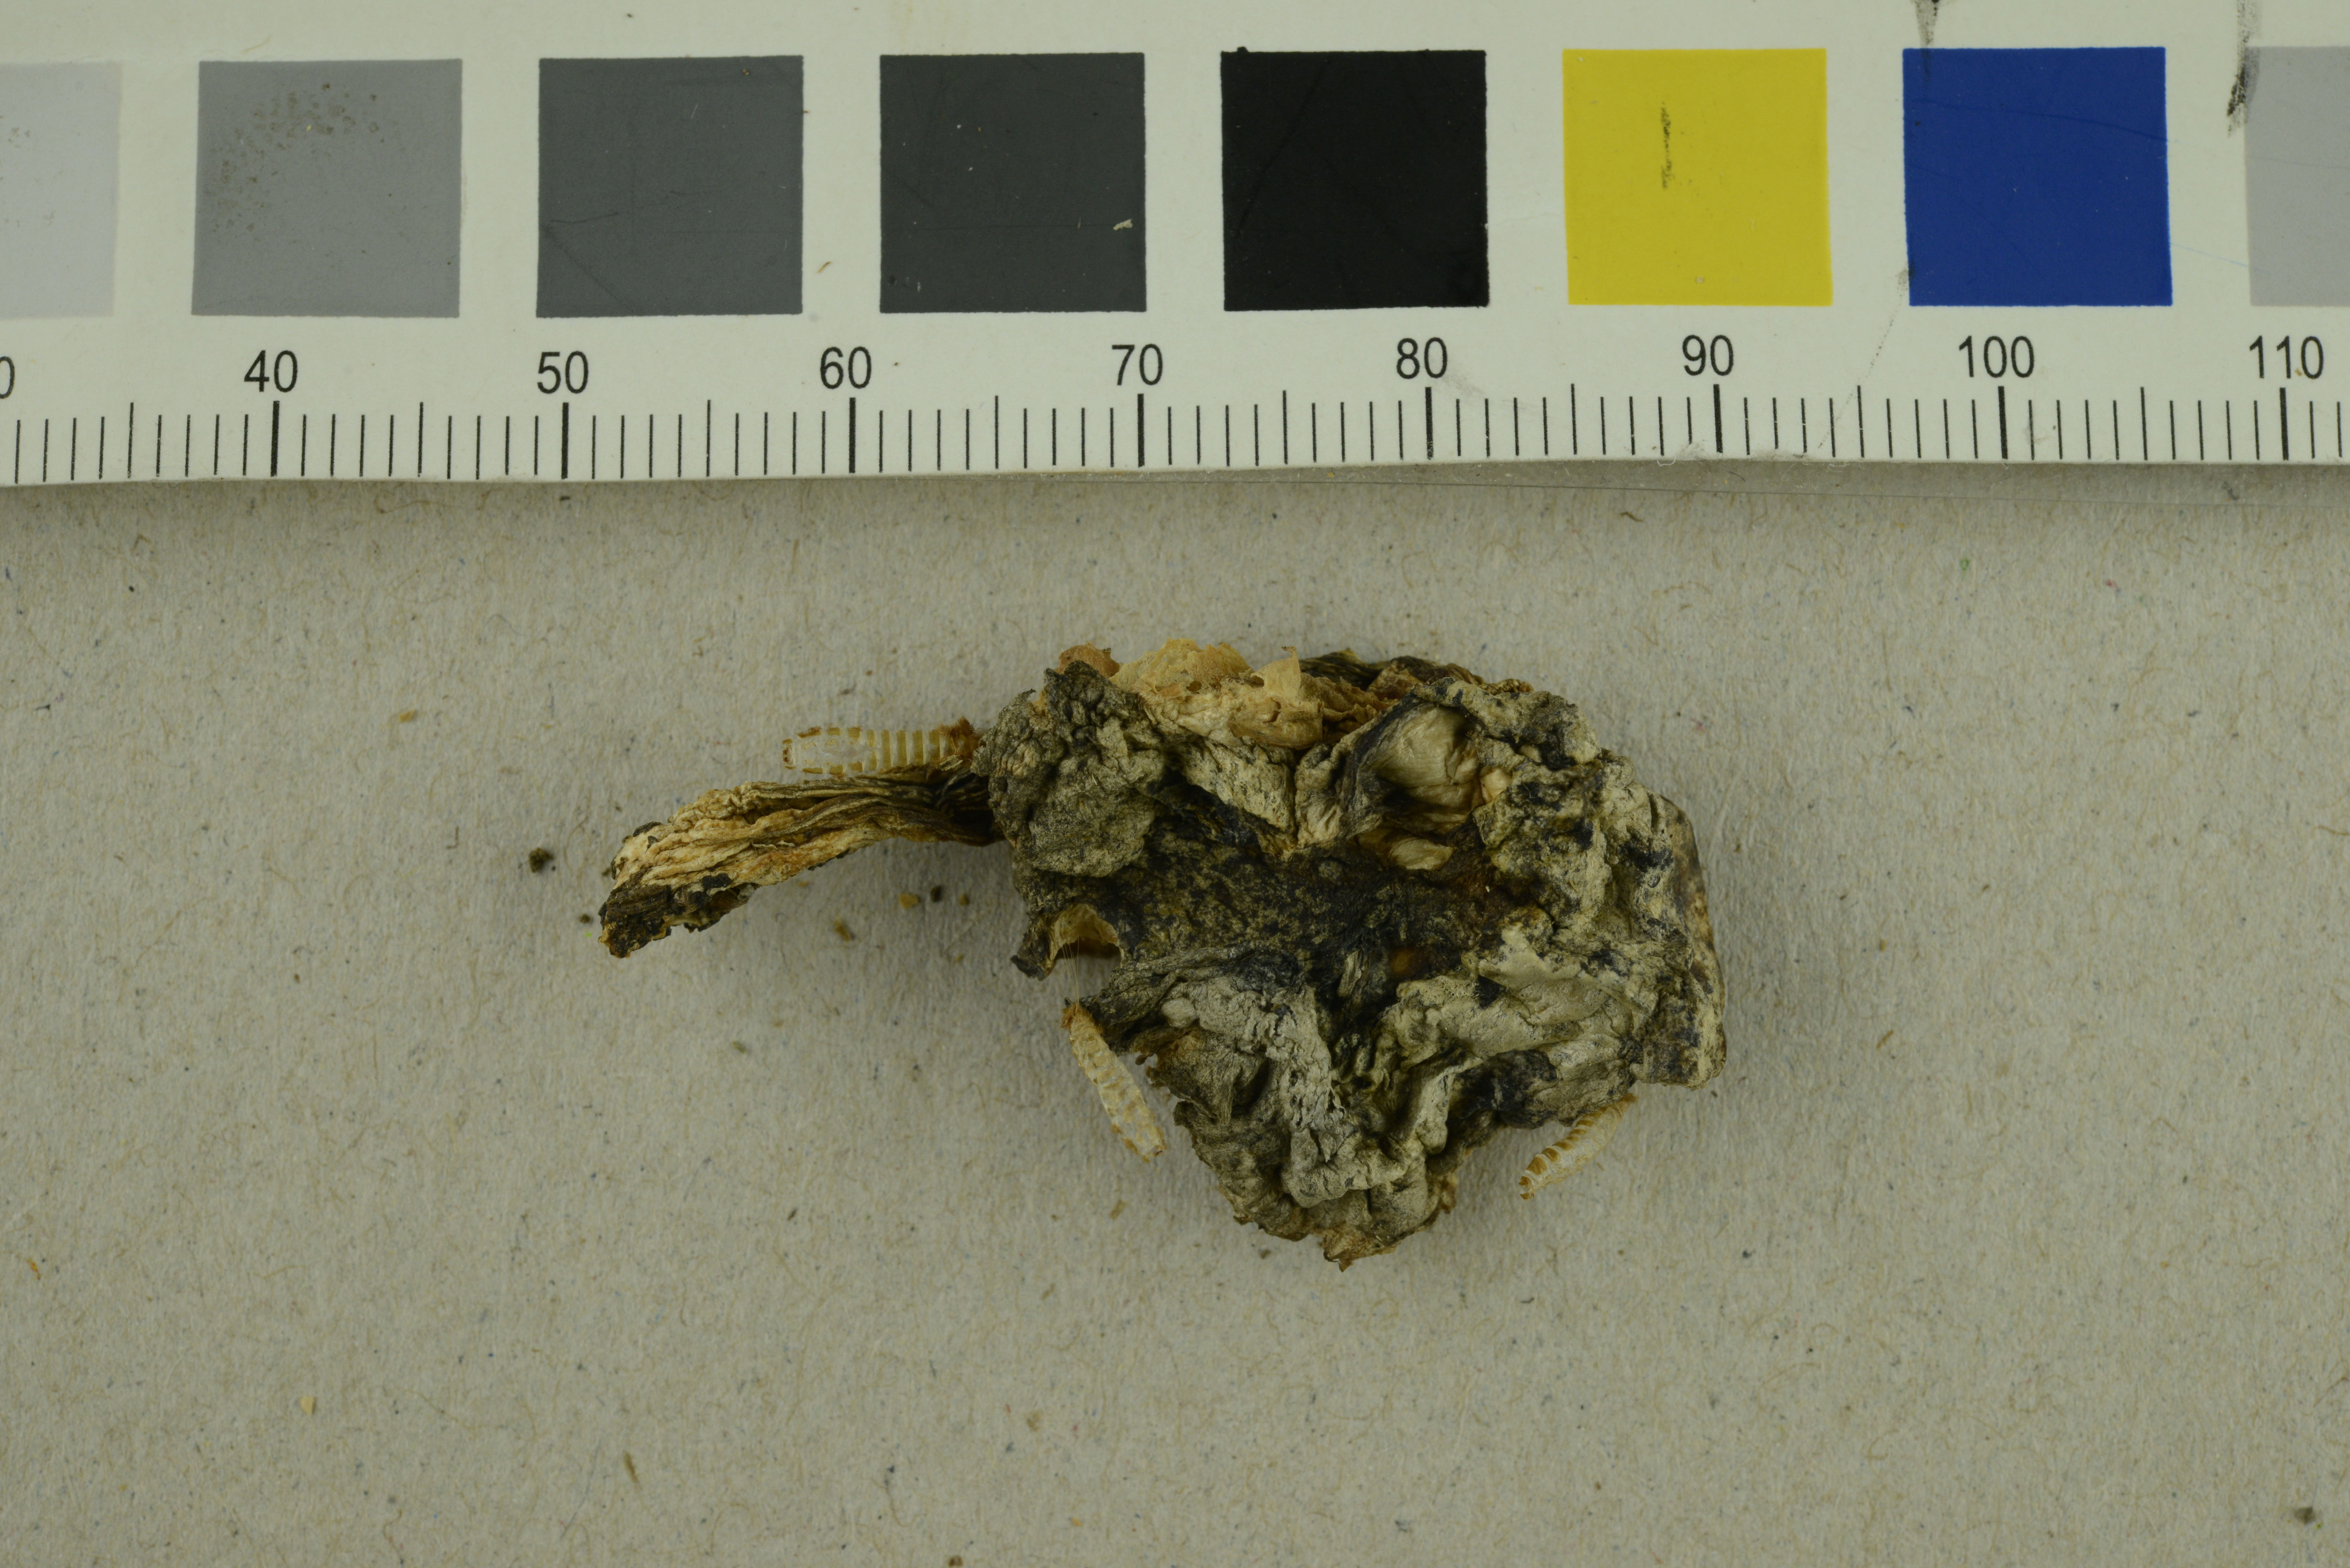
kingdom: Fungi
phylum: Basidiomycota
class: Agaricomycetes
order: Agaricales
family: Entolomataceae
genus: Entoloma
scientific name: Entoloma madidum
